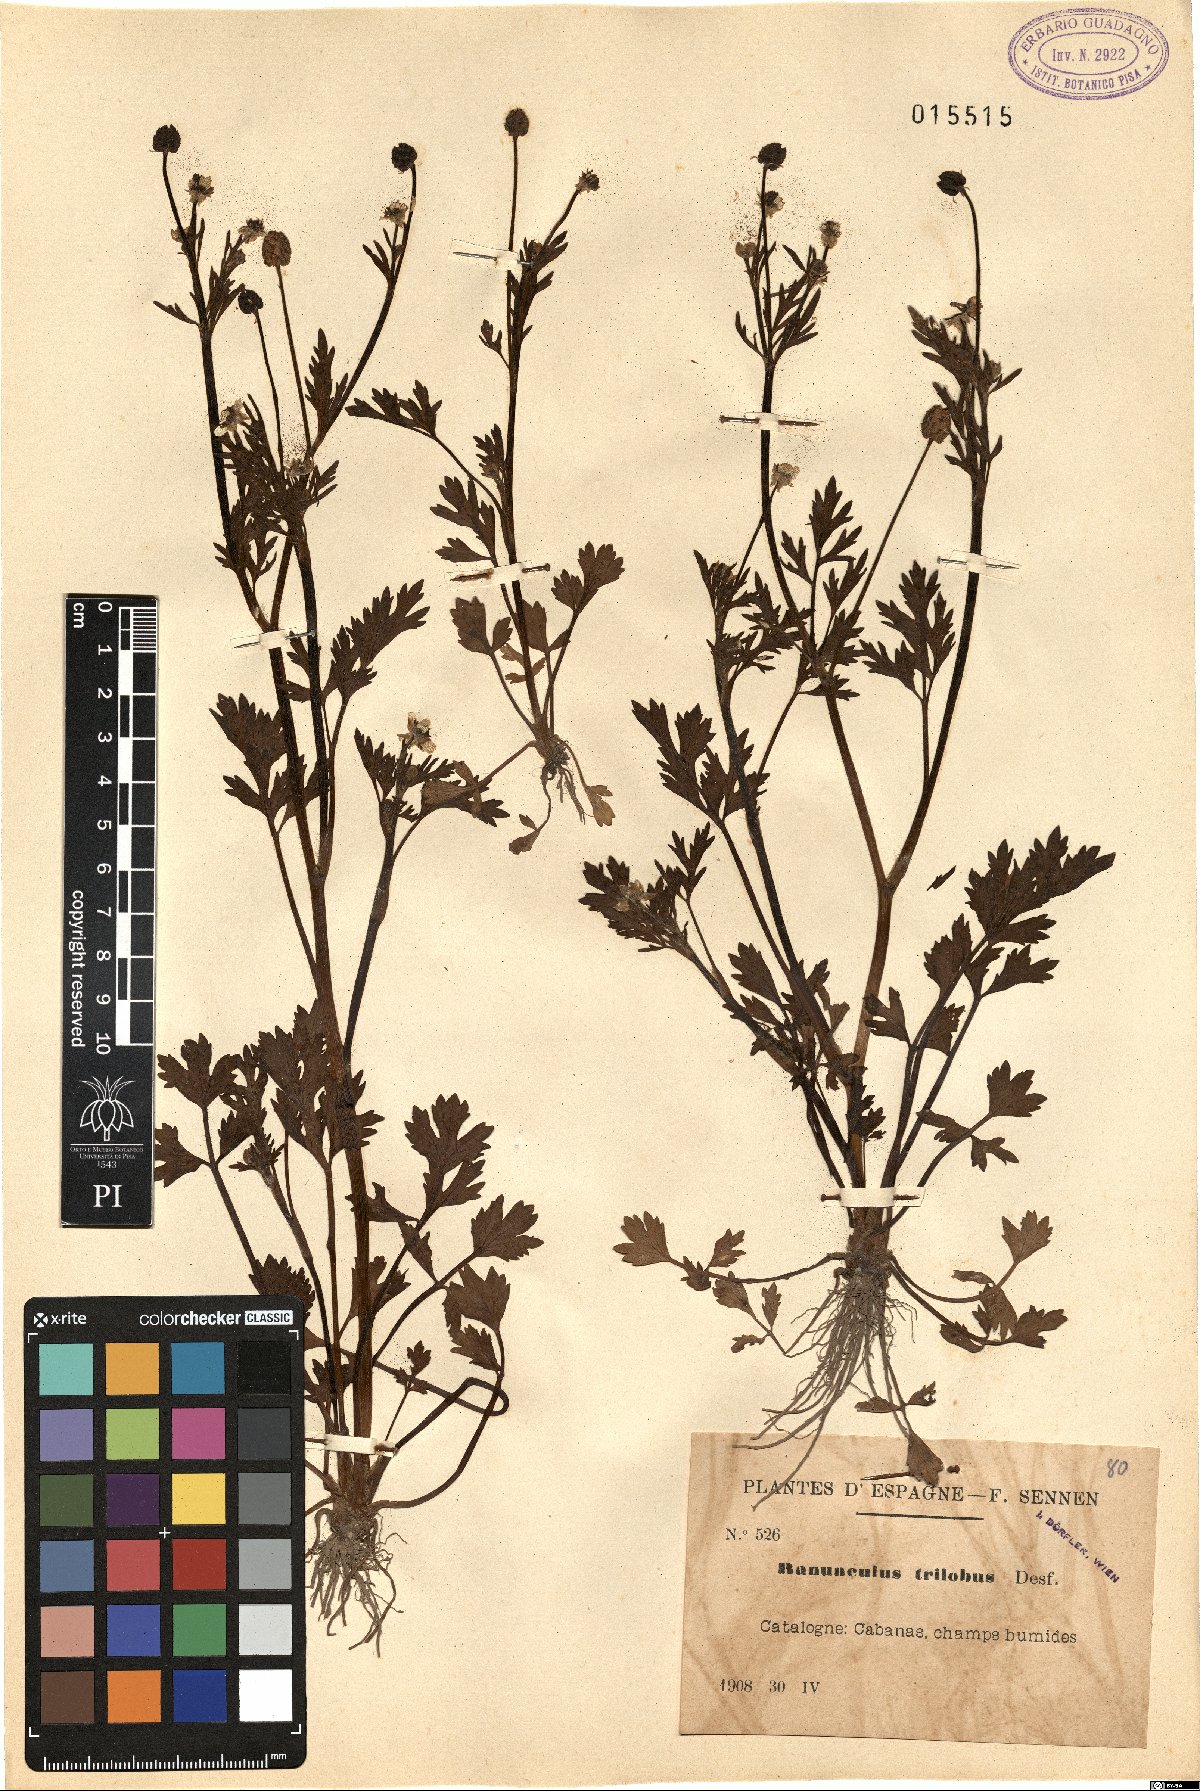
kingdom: Plantae
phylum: Tracheophyta
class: Magnoliopsida
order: Ranunculales
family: Ranunculaceae
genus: Ranunculus
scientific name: Ranunculus trilobus
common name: Threelobe buttercup
